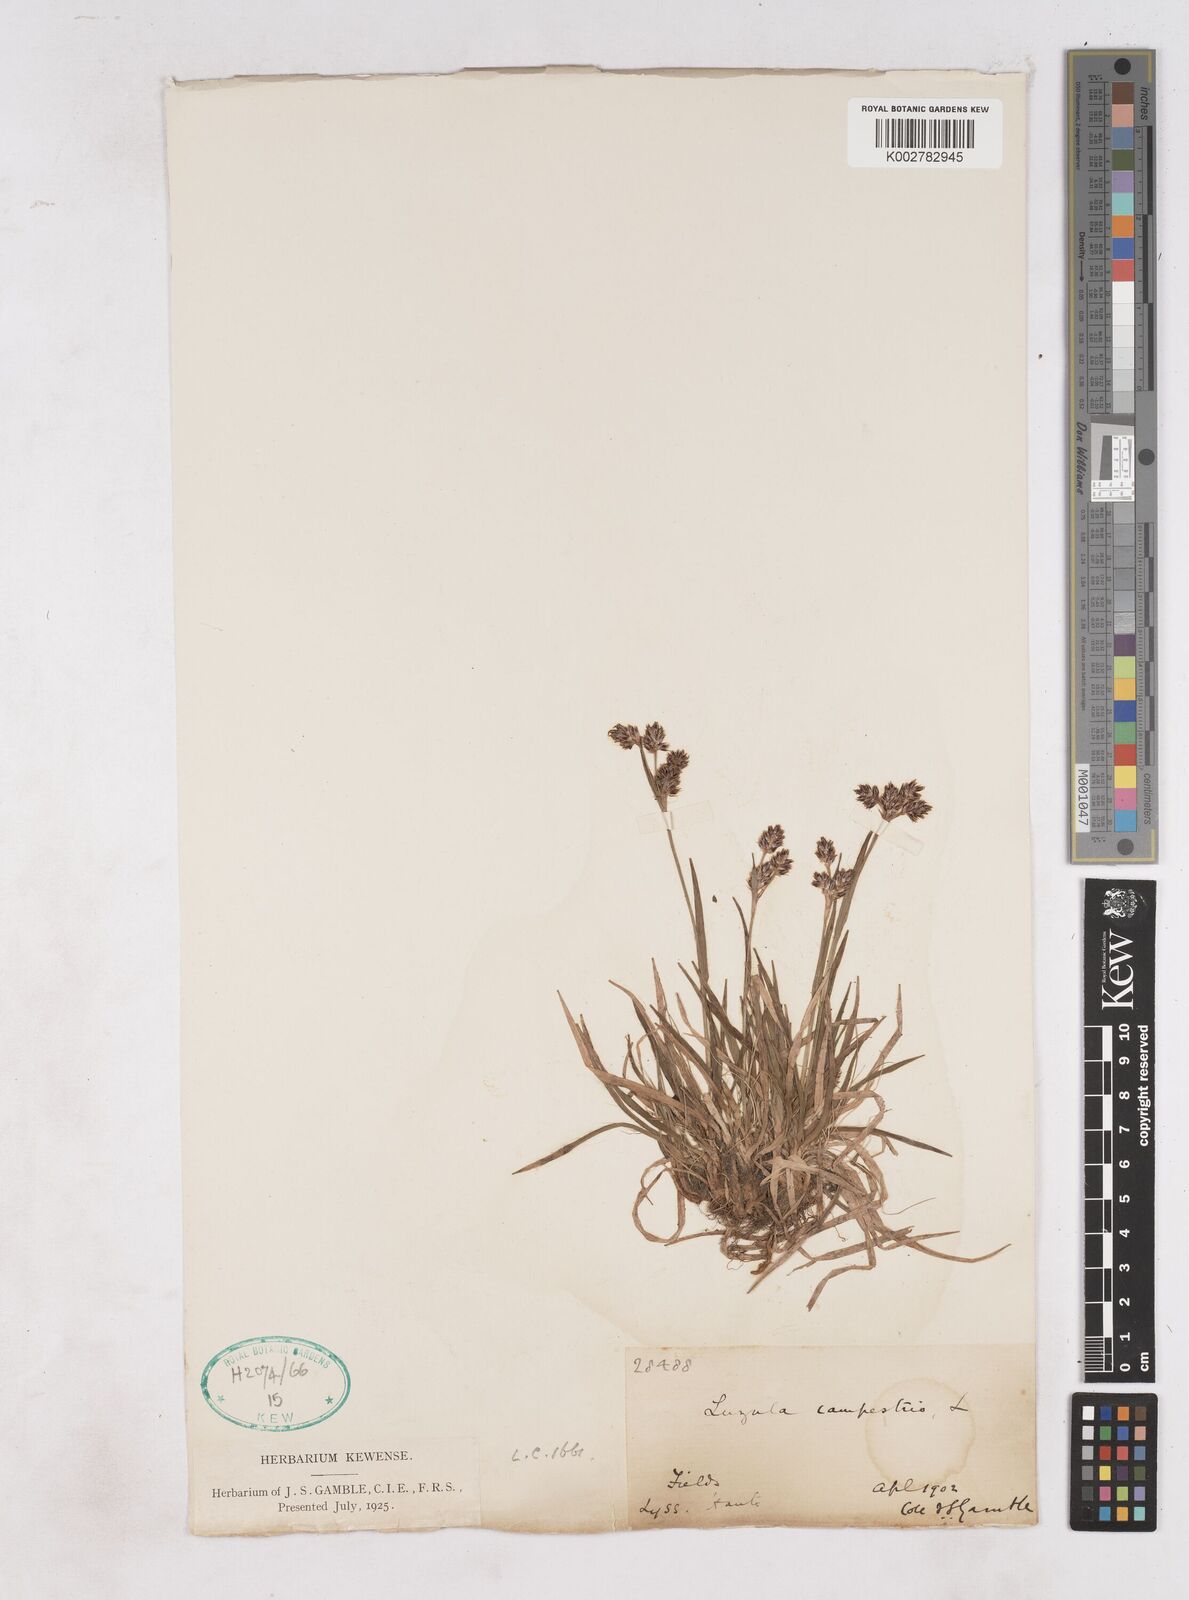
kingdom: Plantae
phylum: Tracheophyta
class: Liliopsida
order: Poales
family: Juncaceae
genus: Luzula
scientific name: Luzula campestris
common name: Field wood-rush
